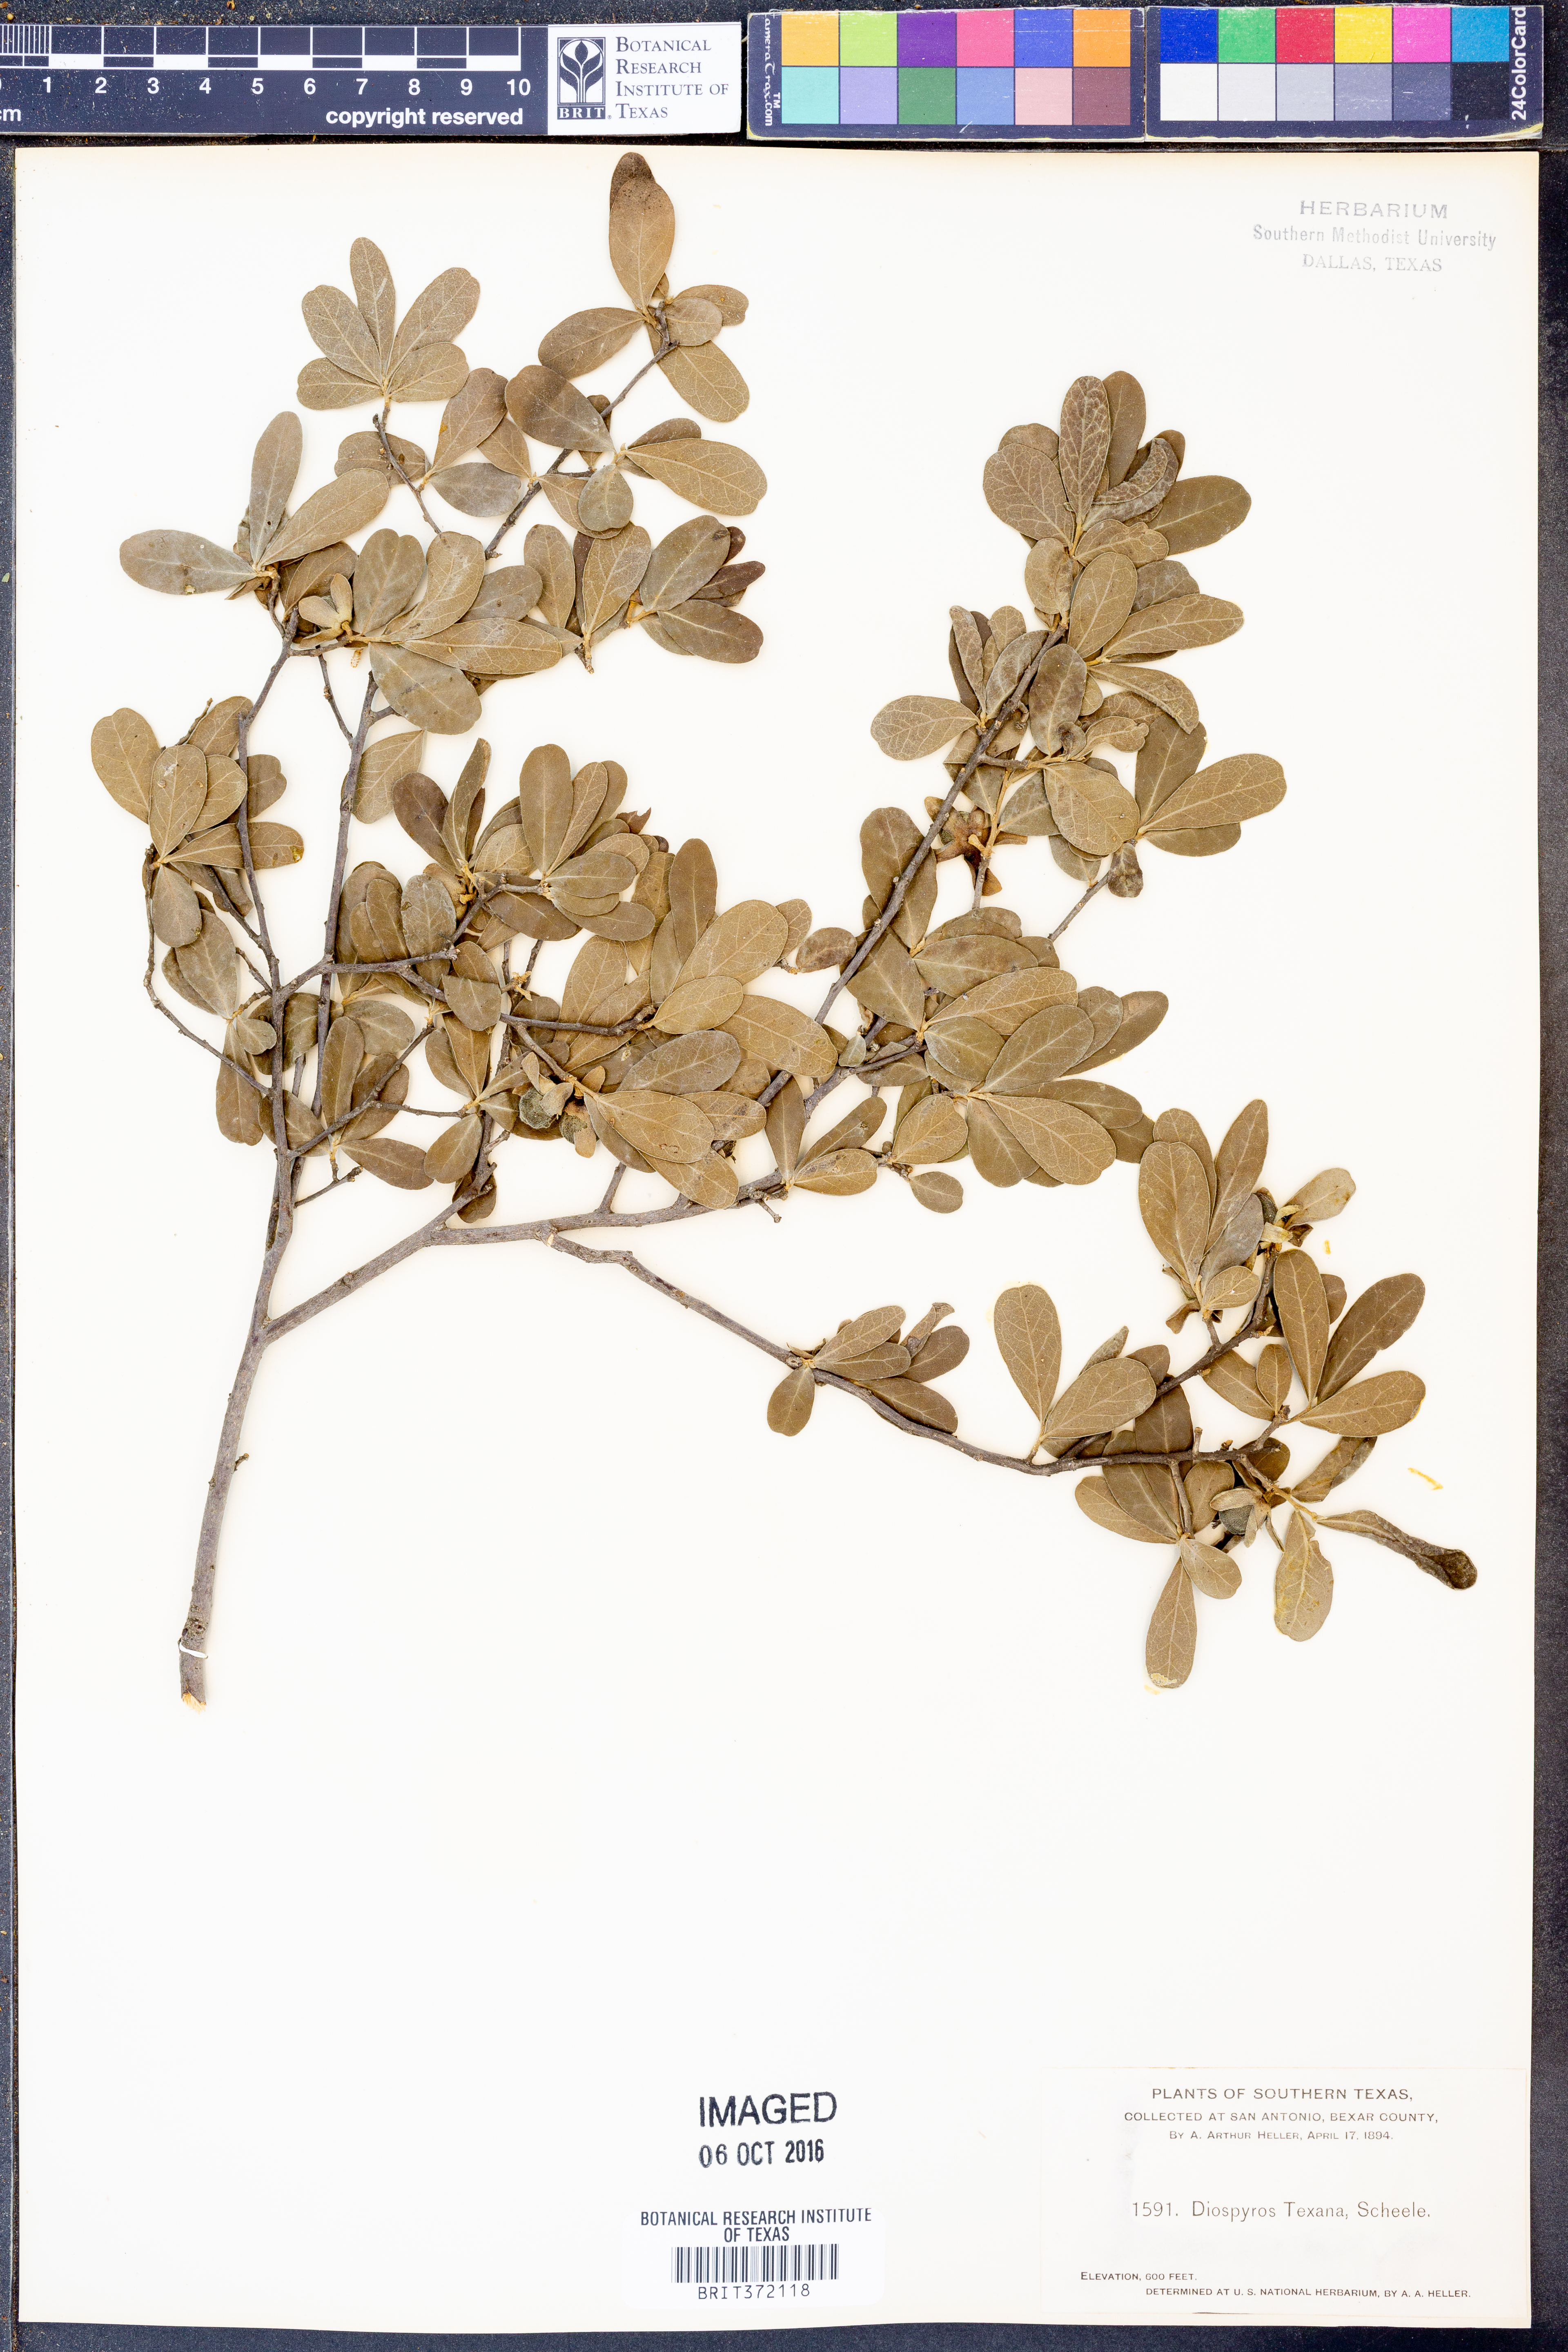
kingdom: Plantae
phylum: Tracheophyta
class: Magnoliopsida
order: Ericales
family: Ebenaceae
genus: Diospyros
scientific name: Diospyros texana
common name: Texas persimmon
